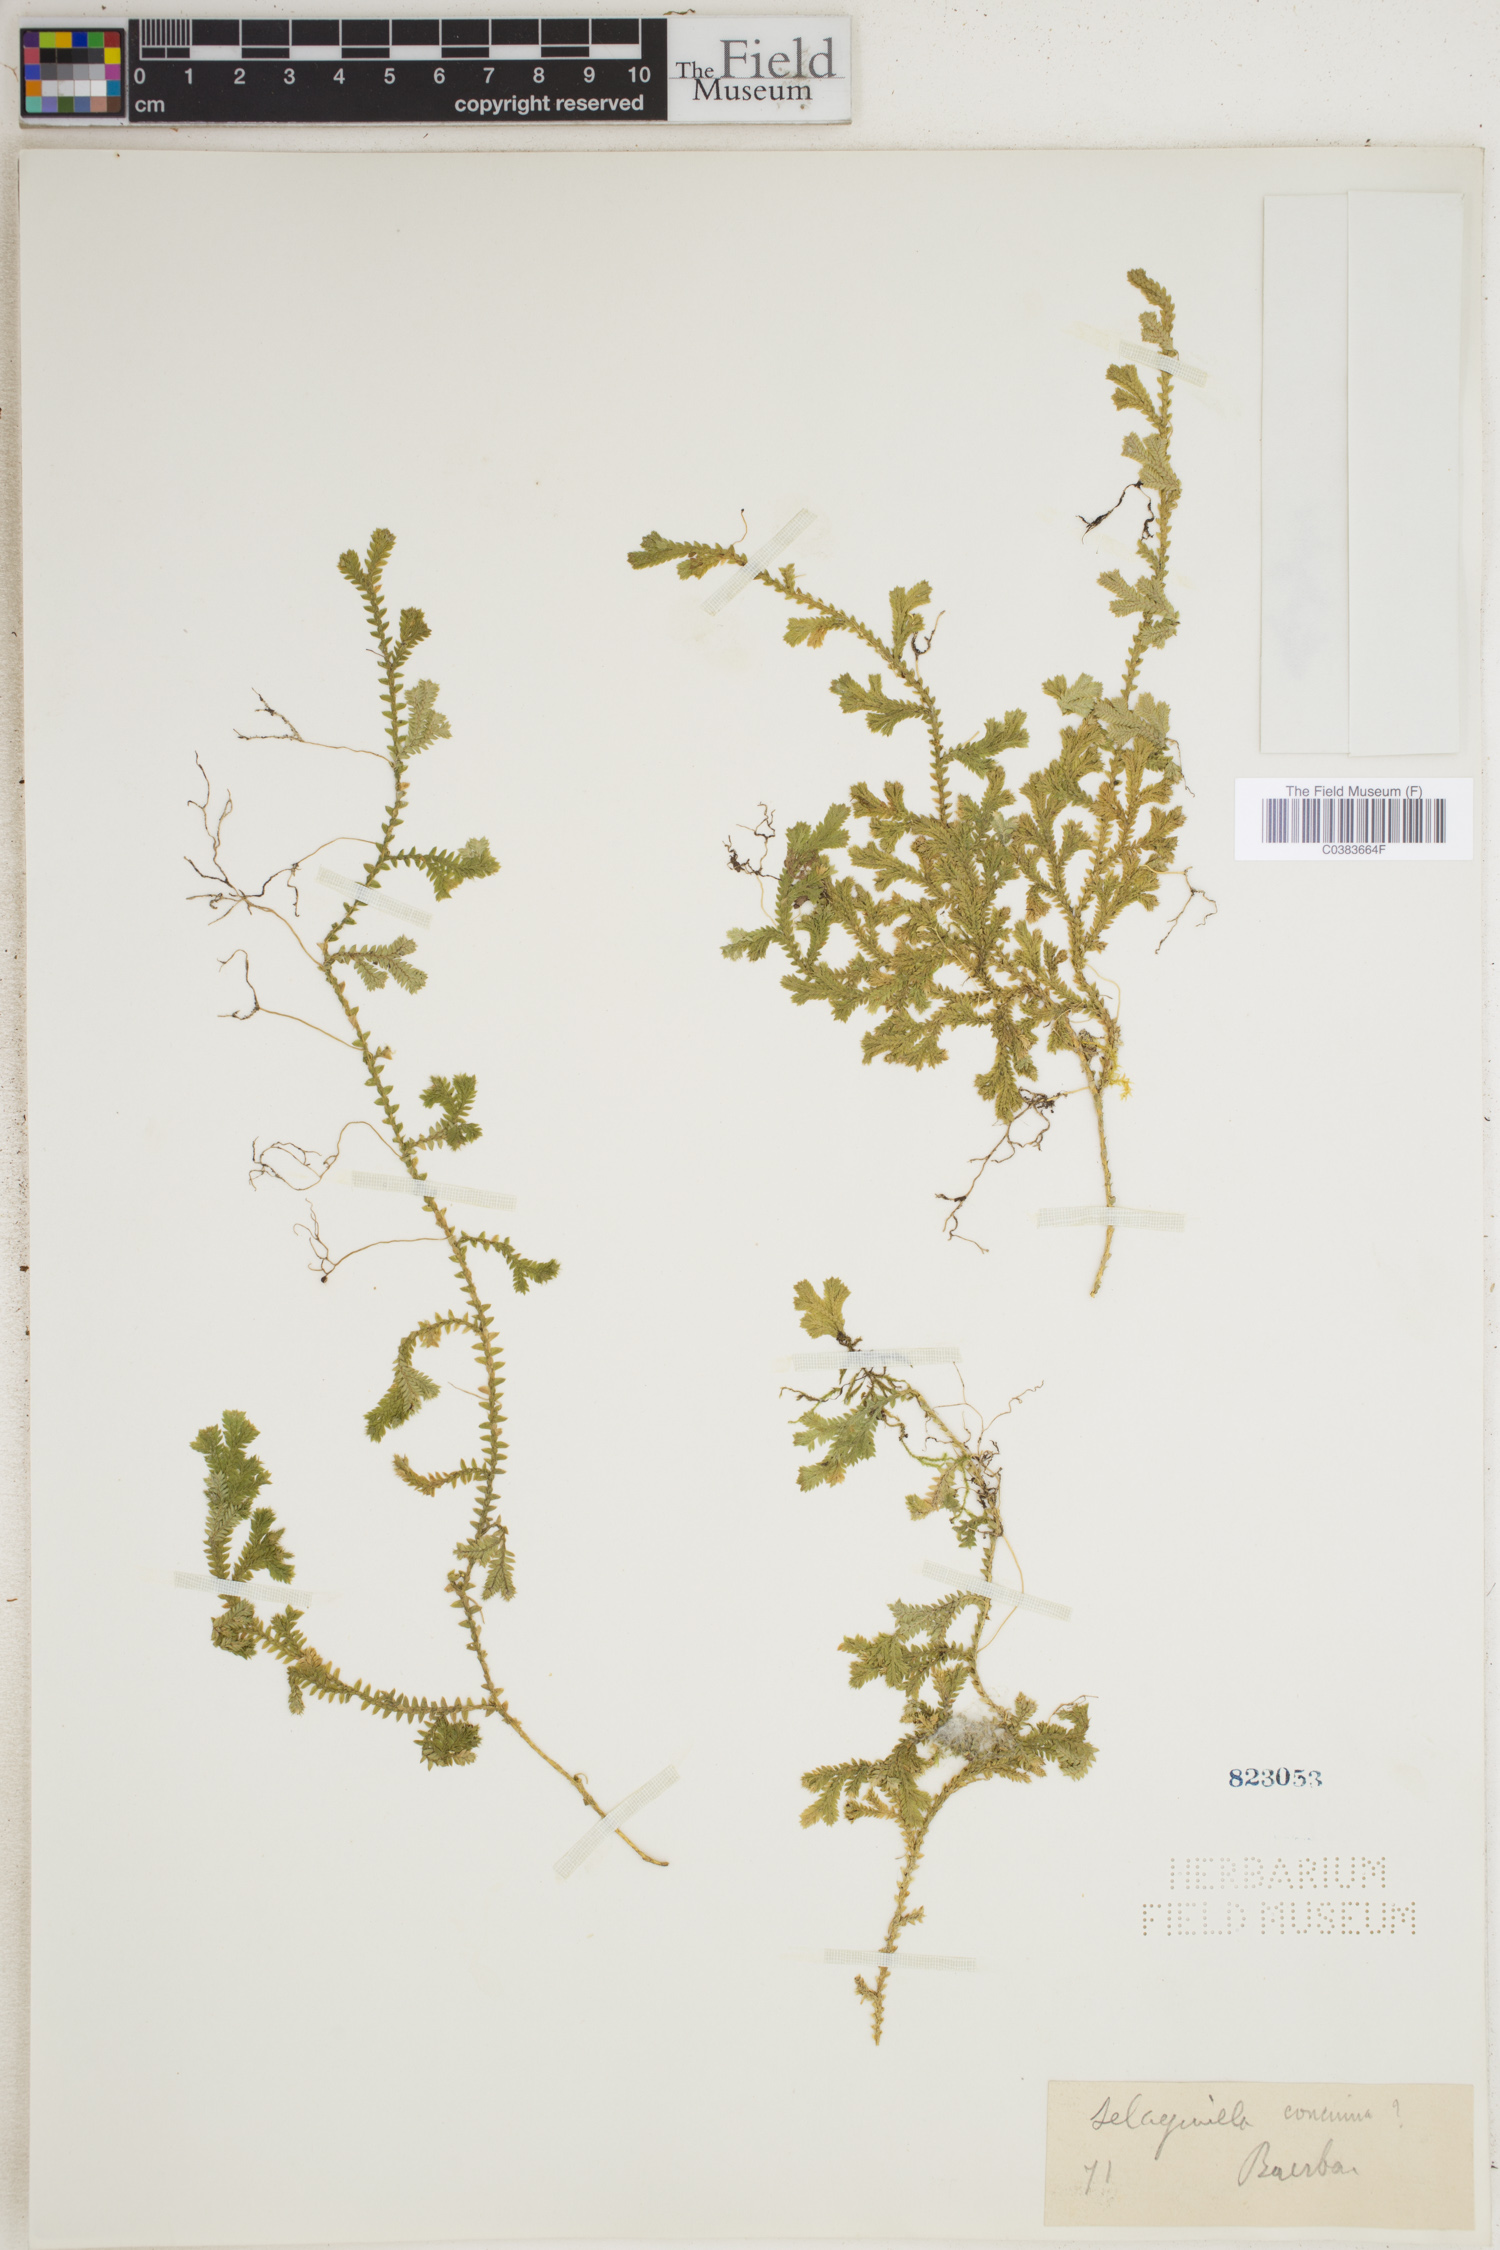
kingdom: Plantae
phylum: Tracheophyta
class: Lycopodiopsida
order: Selaginellales
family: Selaginellaceae
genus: Selaginella
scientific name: Selaginella concinna
